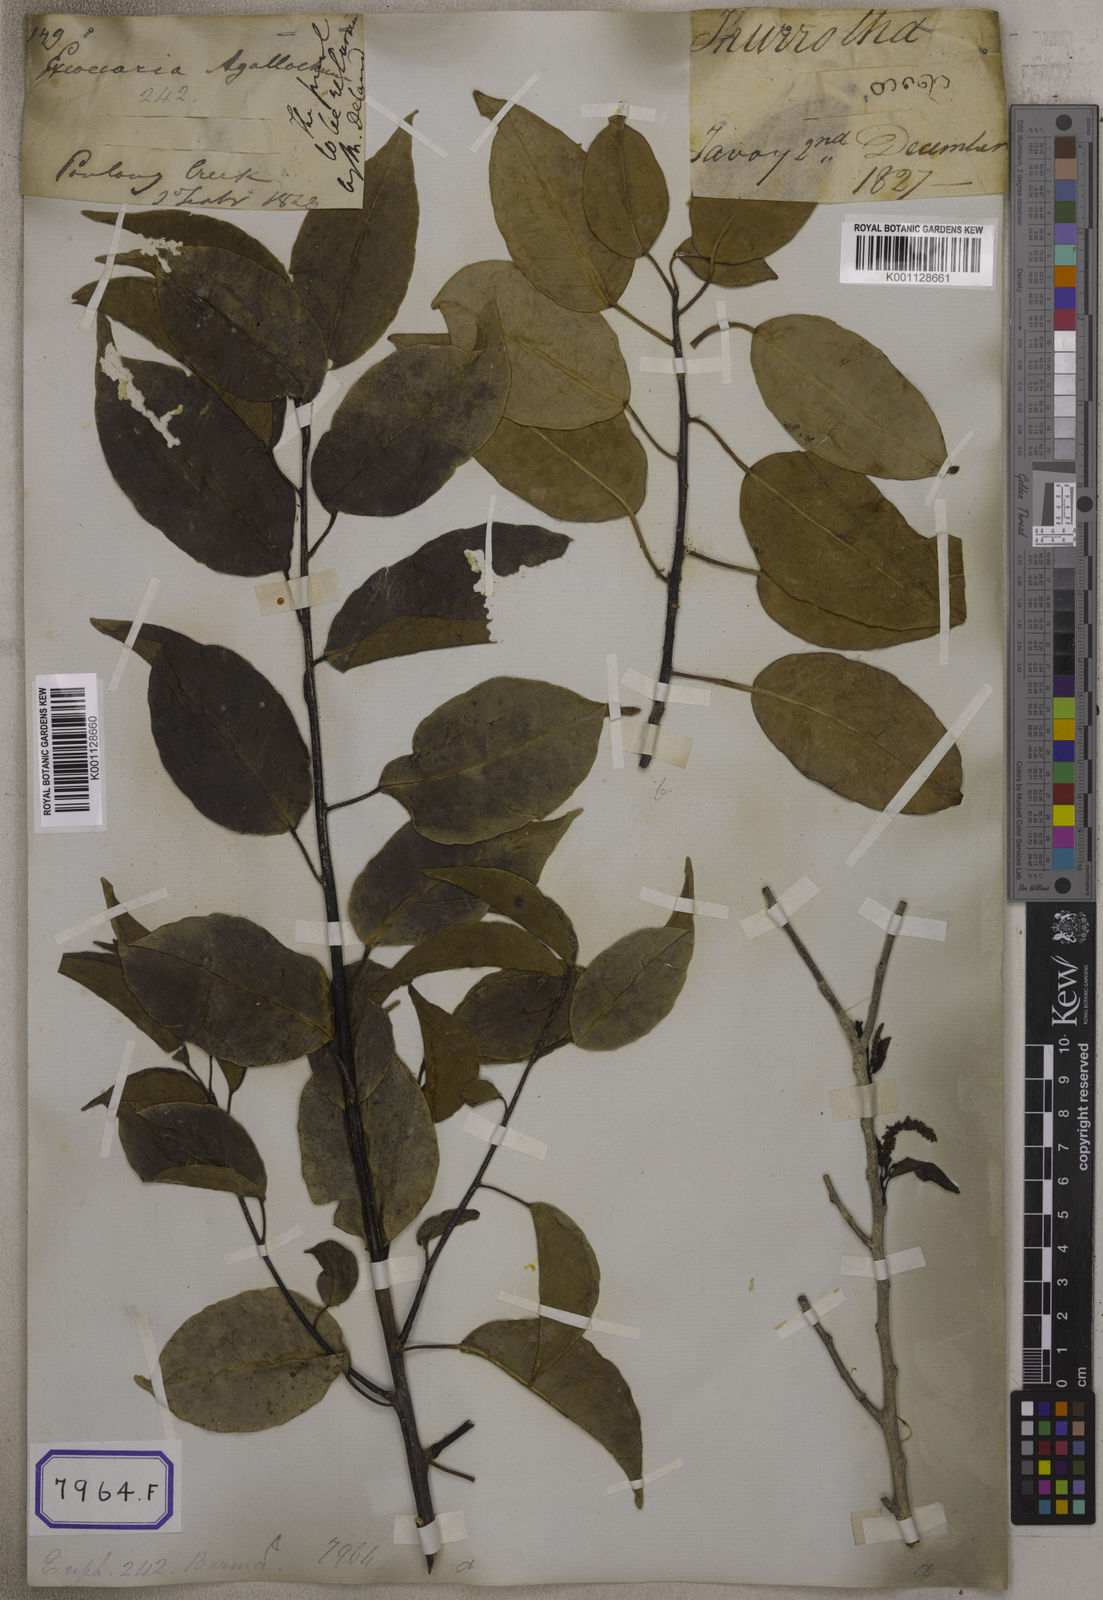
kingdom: Plantae
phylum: Tracheophyta
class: Magnoliopsida
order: Malpighiales
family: Euphorbiaceae
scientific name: Euphorbiaceae
